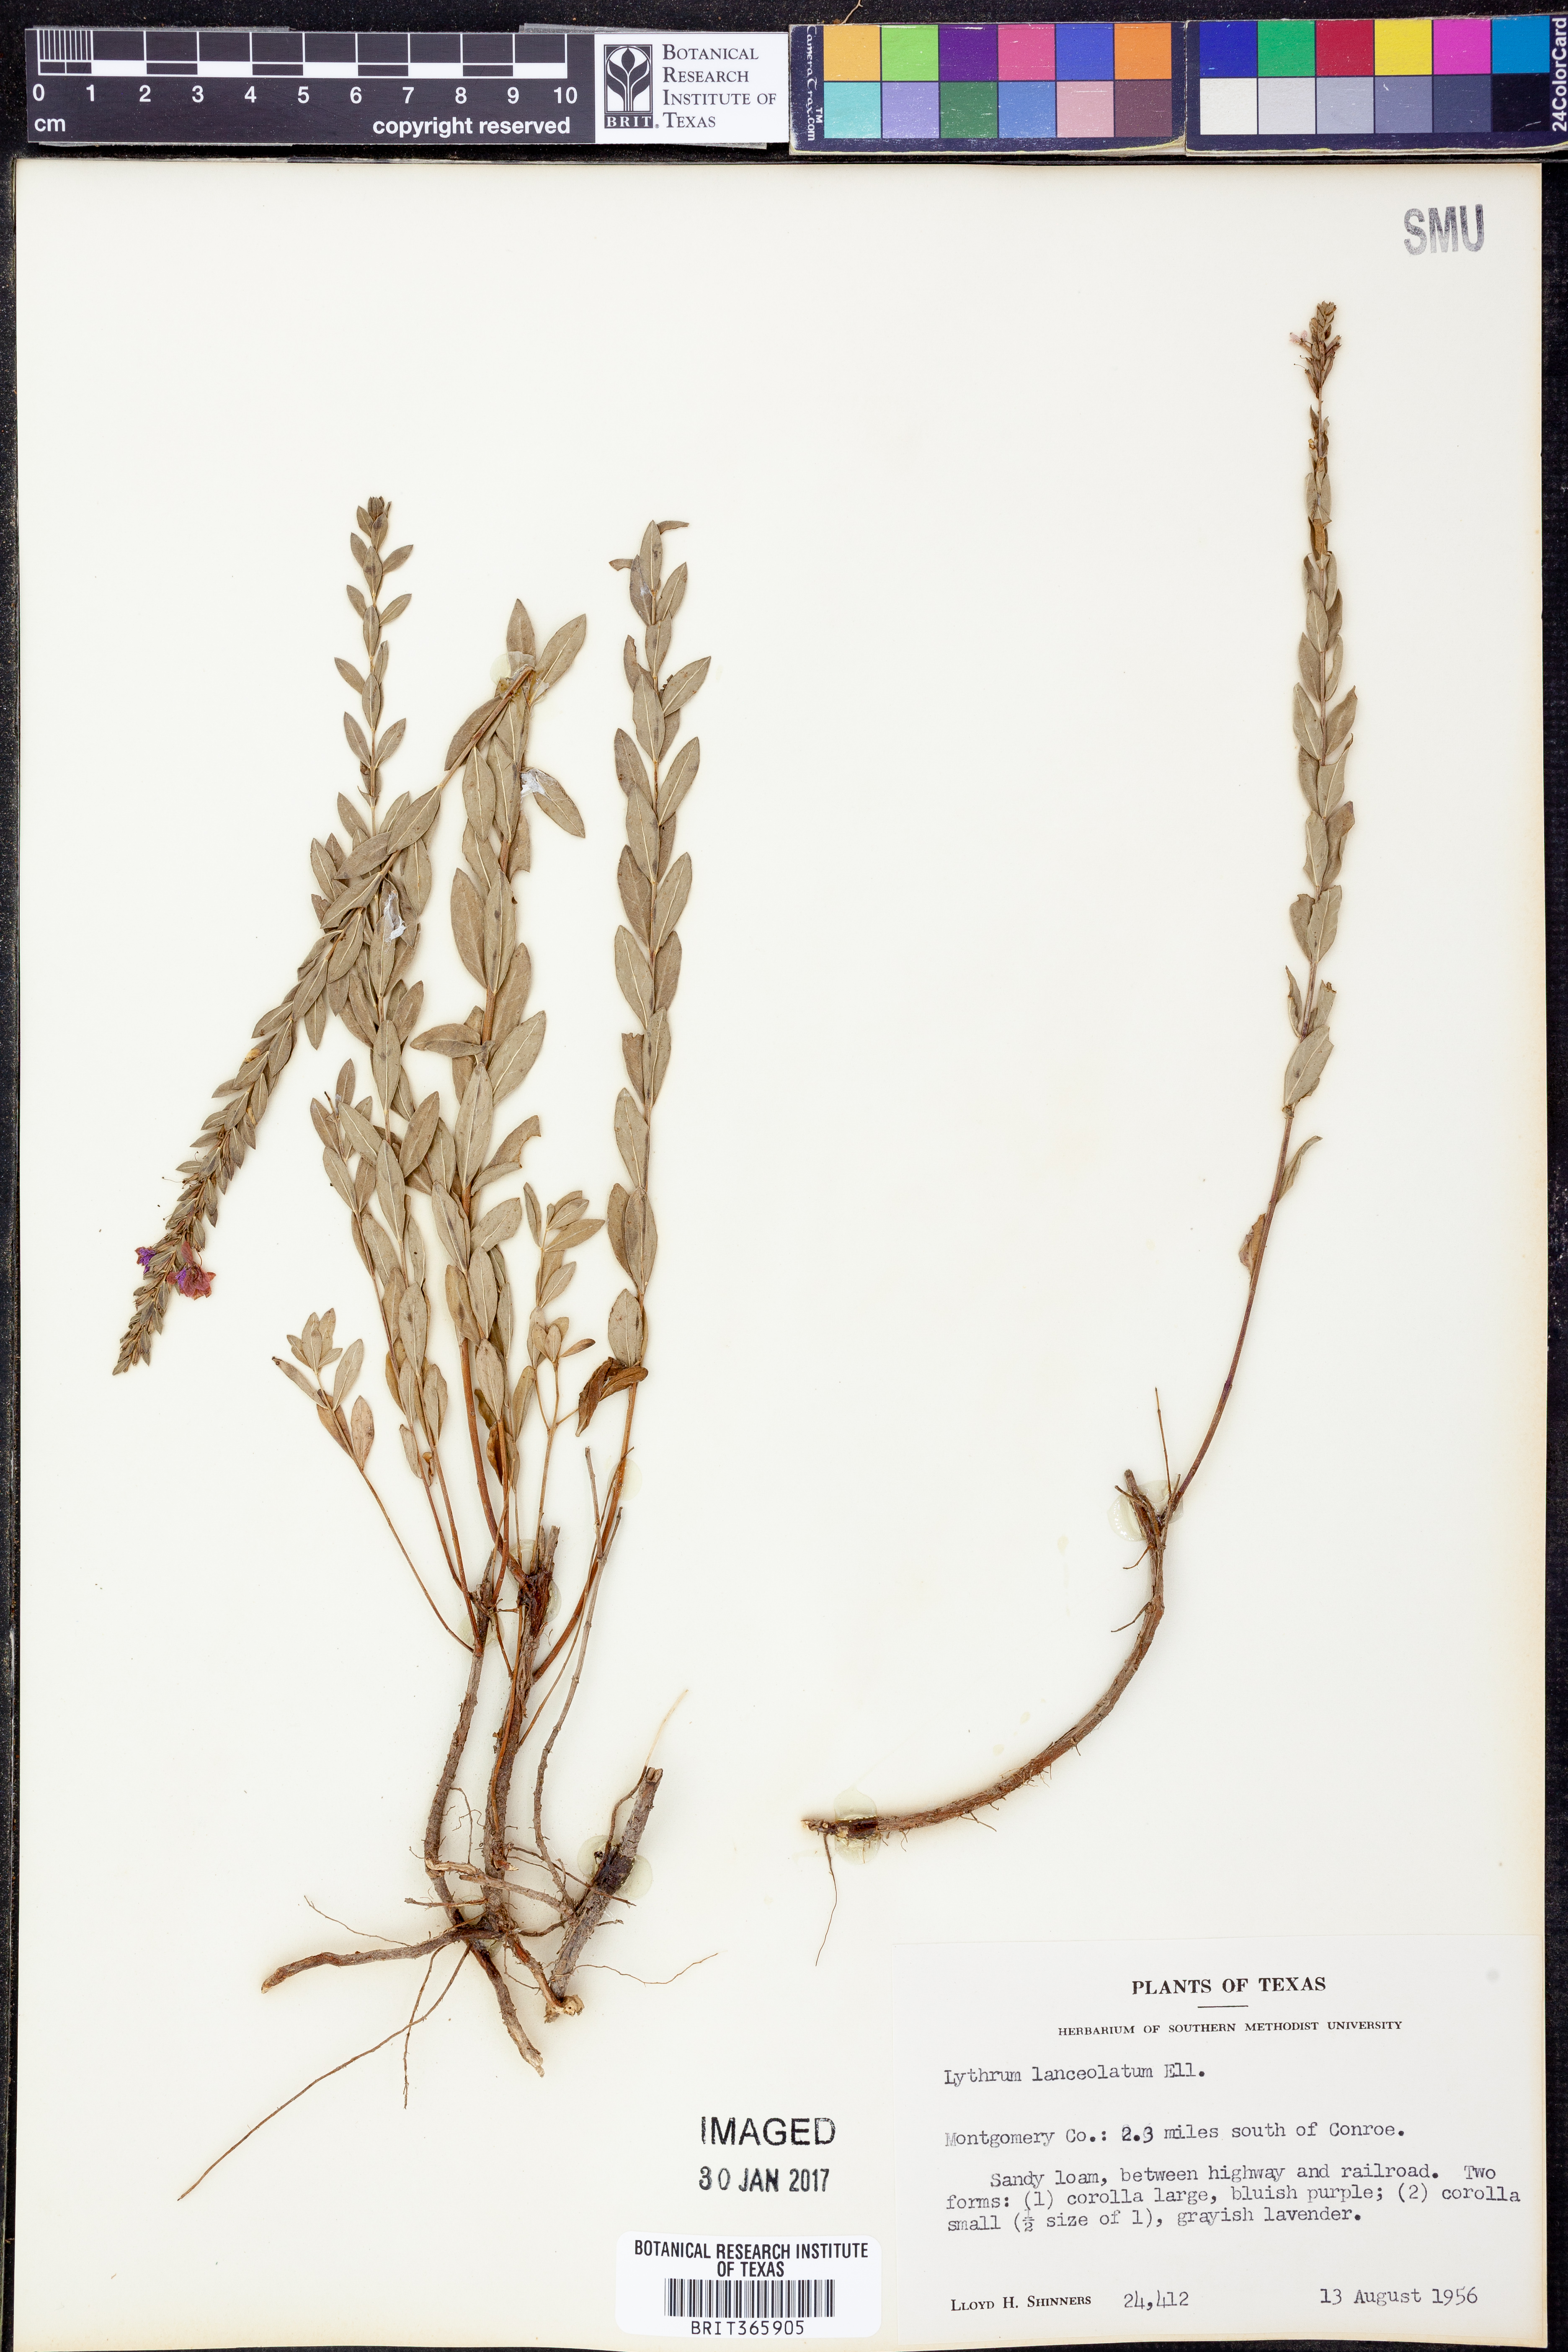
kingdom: Plantae
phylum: Tracheophyta
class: Magnoliopsida
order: Myrtales
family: Lythraceae
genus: Lythrum
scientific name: Lythrum alatum
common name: Winged loosestrife
